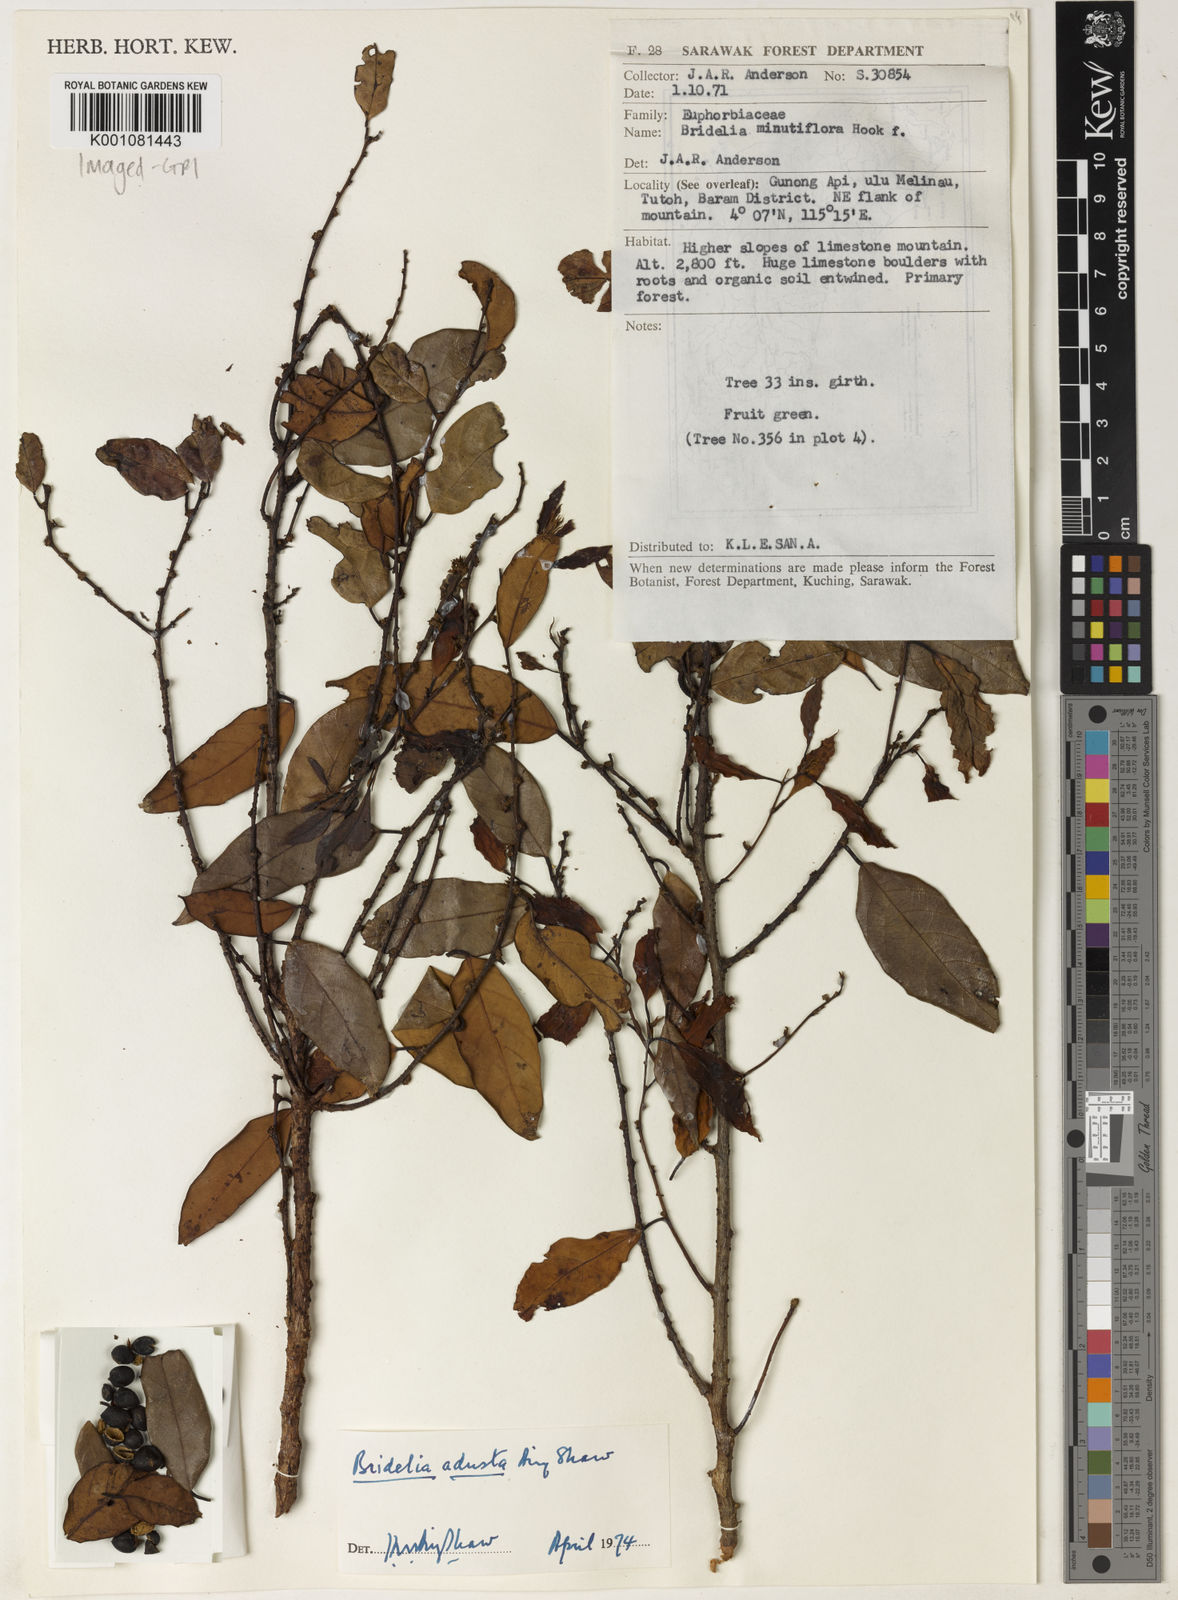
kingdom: Plantae
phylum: Tracheophyta
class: Magnoliopsida
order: Malpighiales
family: Phyllanthaceae
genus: Bridelia
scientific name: Bridelia adusta
